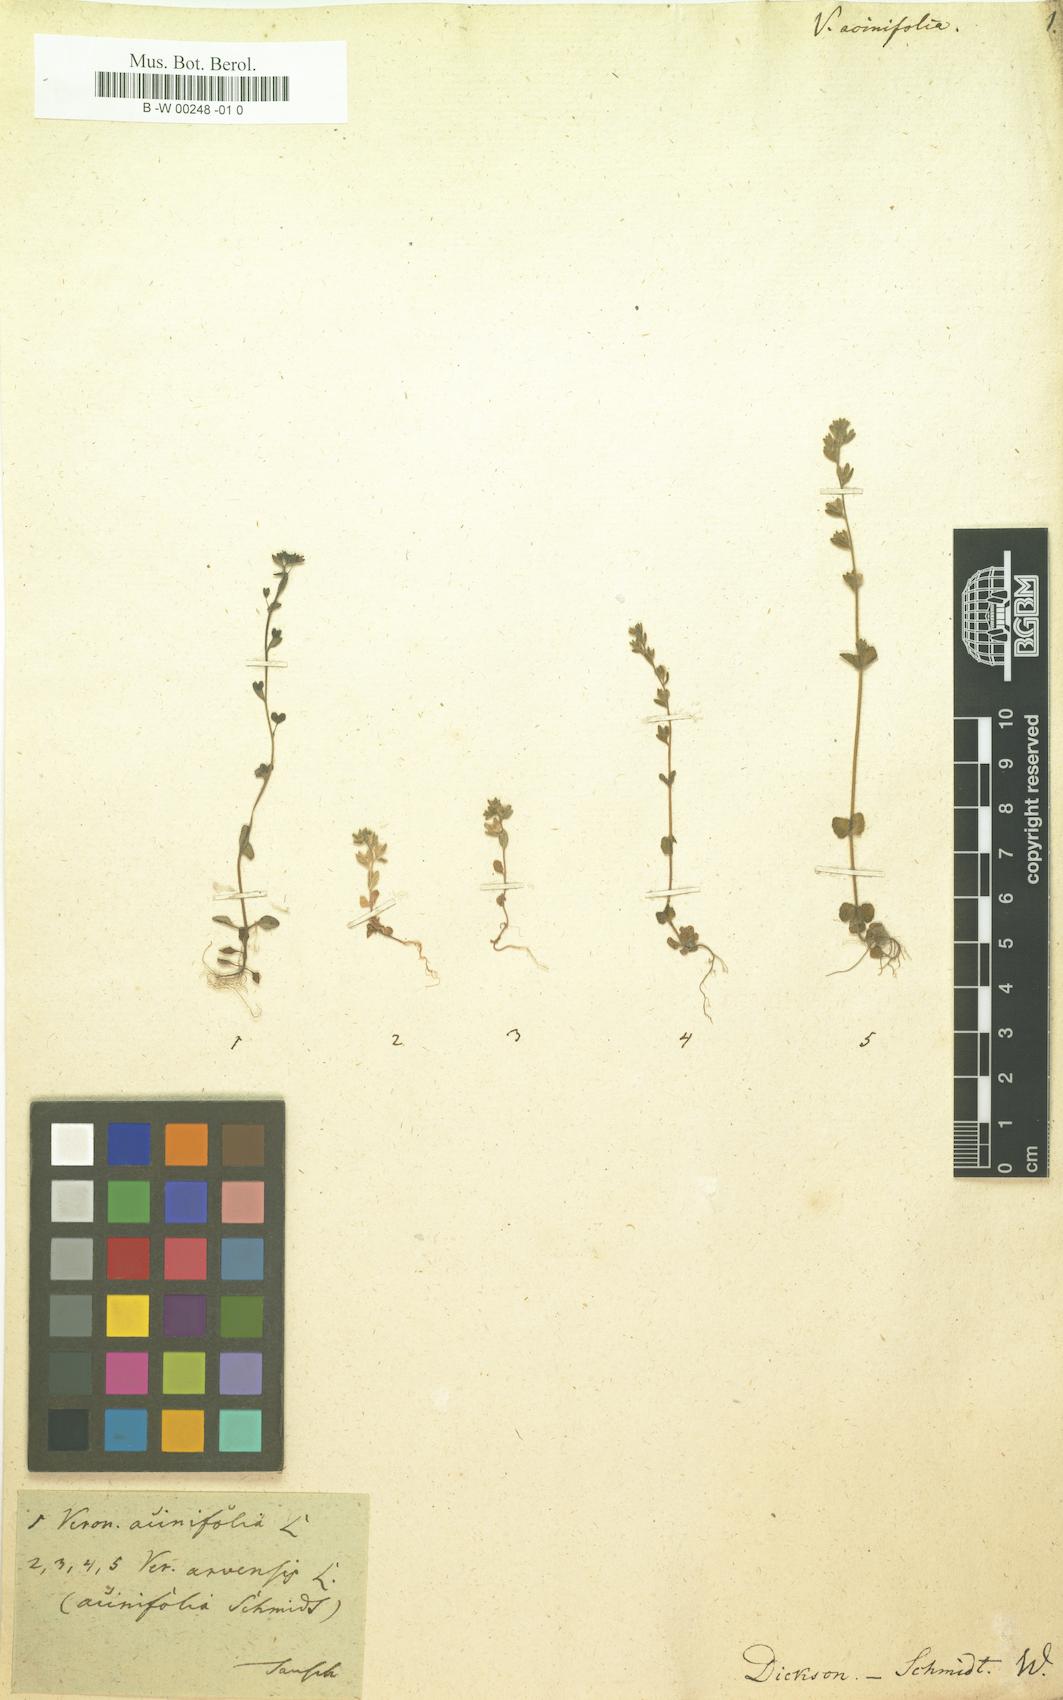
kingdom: Plantae
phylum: Tracheophyta
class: Magnoliopsida
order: Lamiales
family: Plantaginaceae
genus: Veronica
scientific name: Veronica acinifolia
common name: French speedwell
